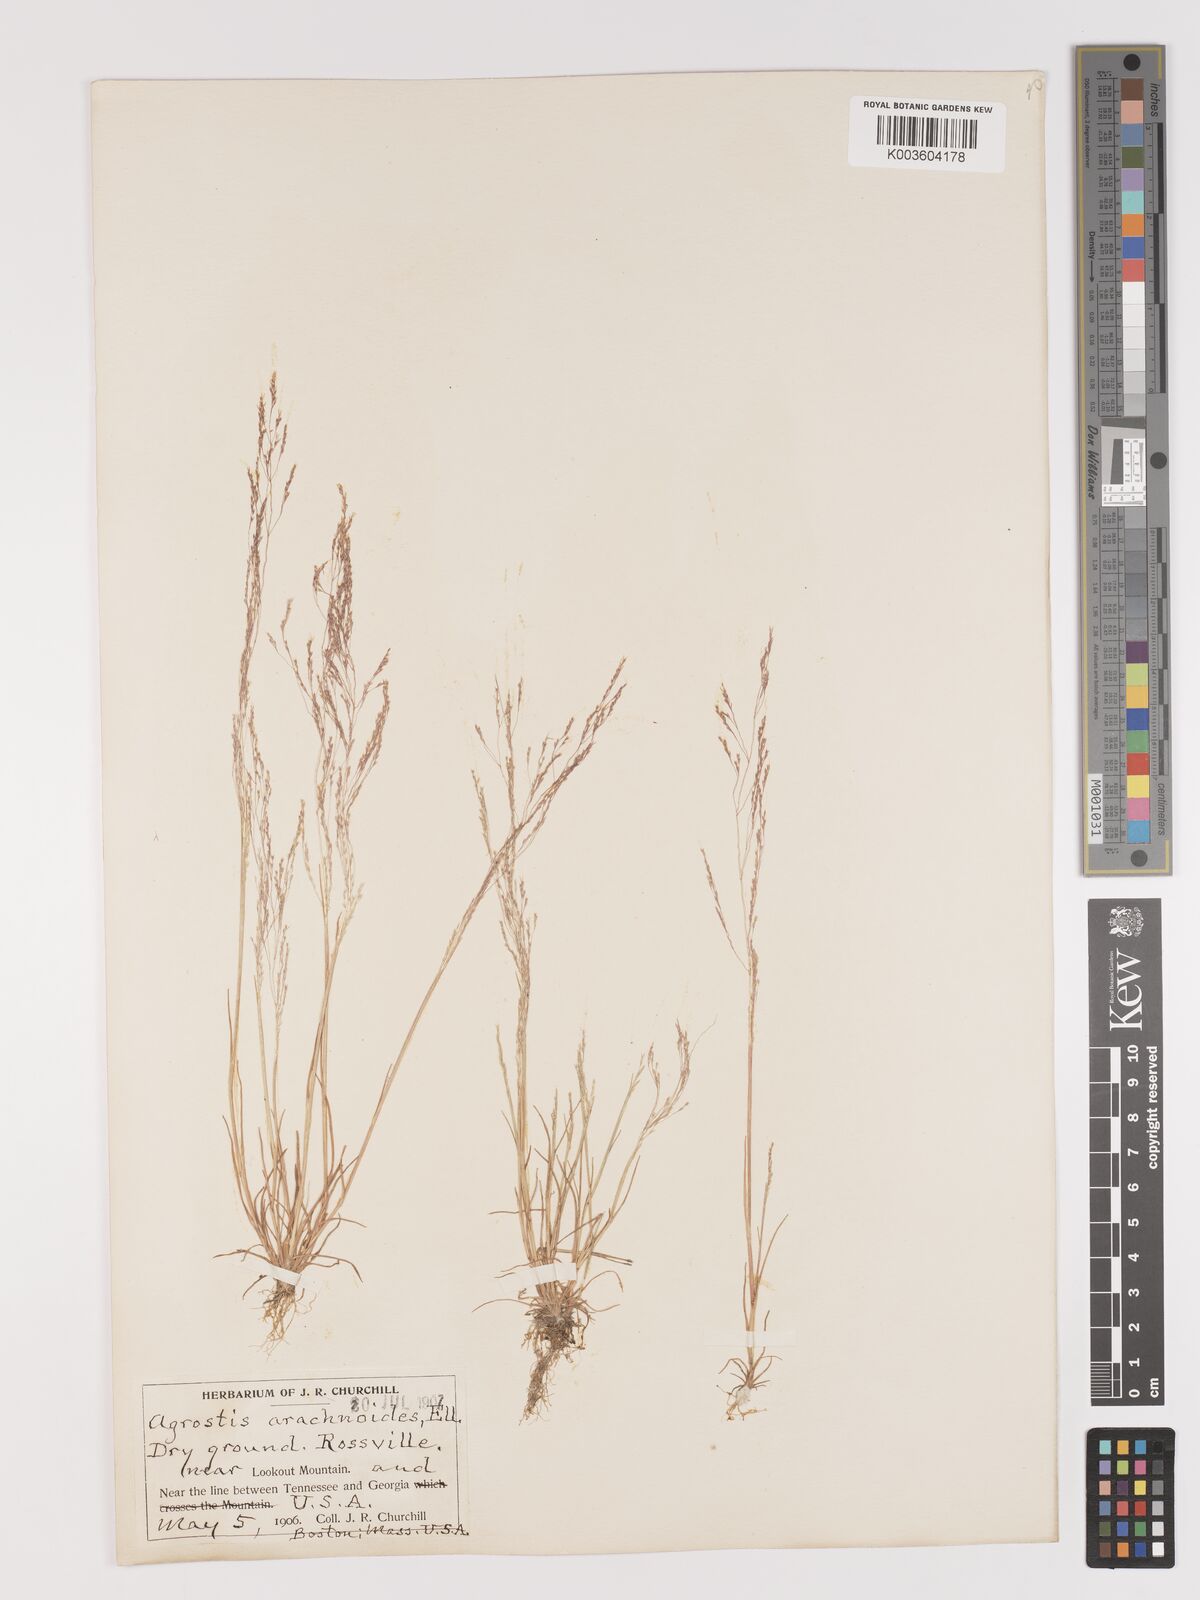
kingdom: Plantae
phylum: Tracheophyta
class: Liliopsida
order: Poales
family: Poaceae
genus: Agrostis
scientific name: Agrostis elliottiana
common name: Elliott's bent
